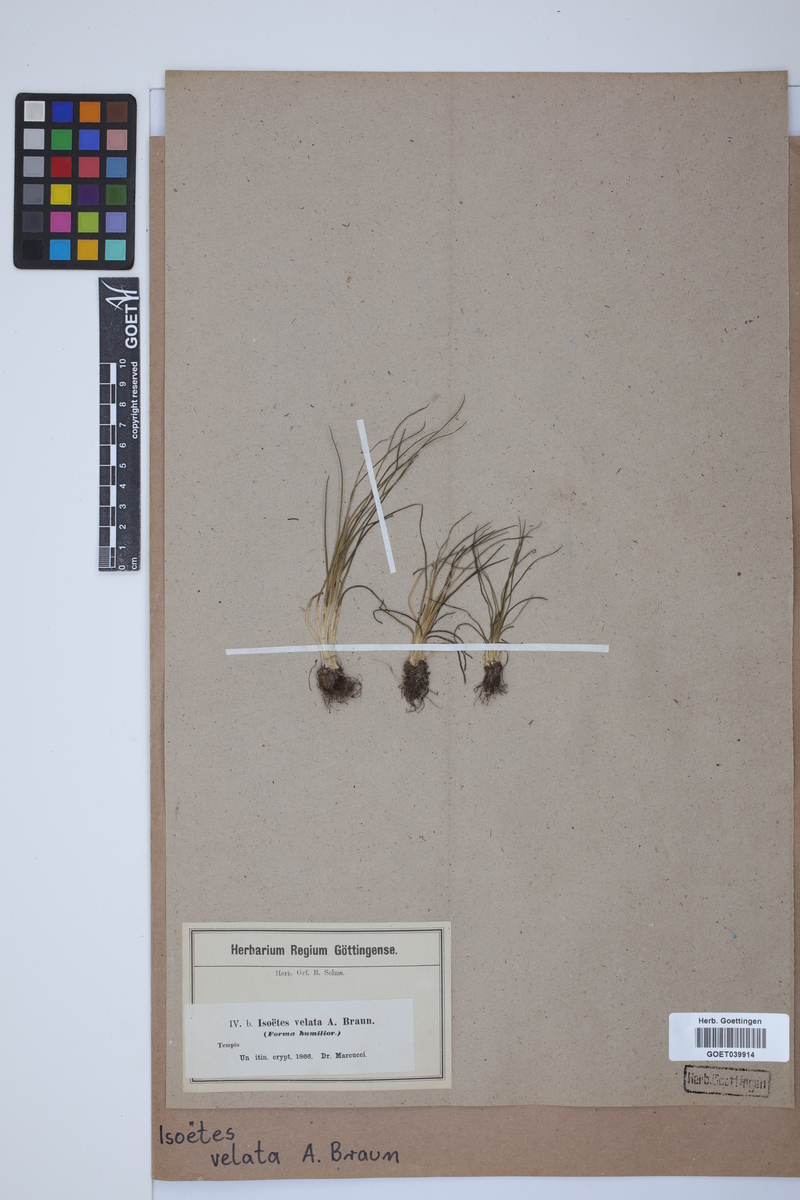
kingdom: Plantae
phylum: Tracheophyta
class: Lycopodiopsida
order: Isoetales
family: Isoetaceae
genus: Isoetes
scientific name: Isoetes longissima
